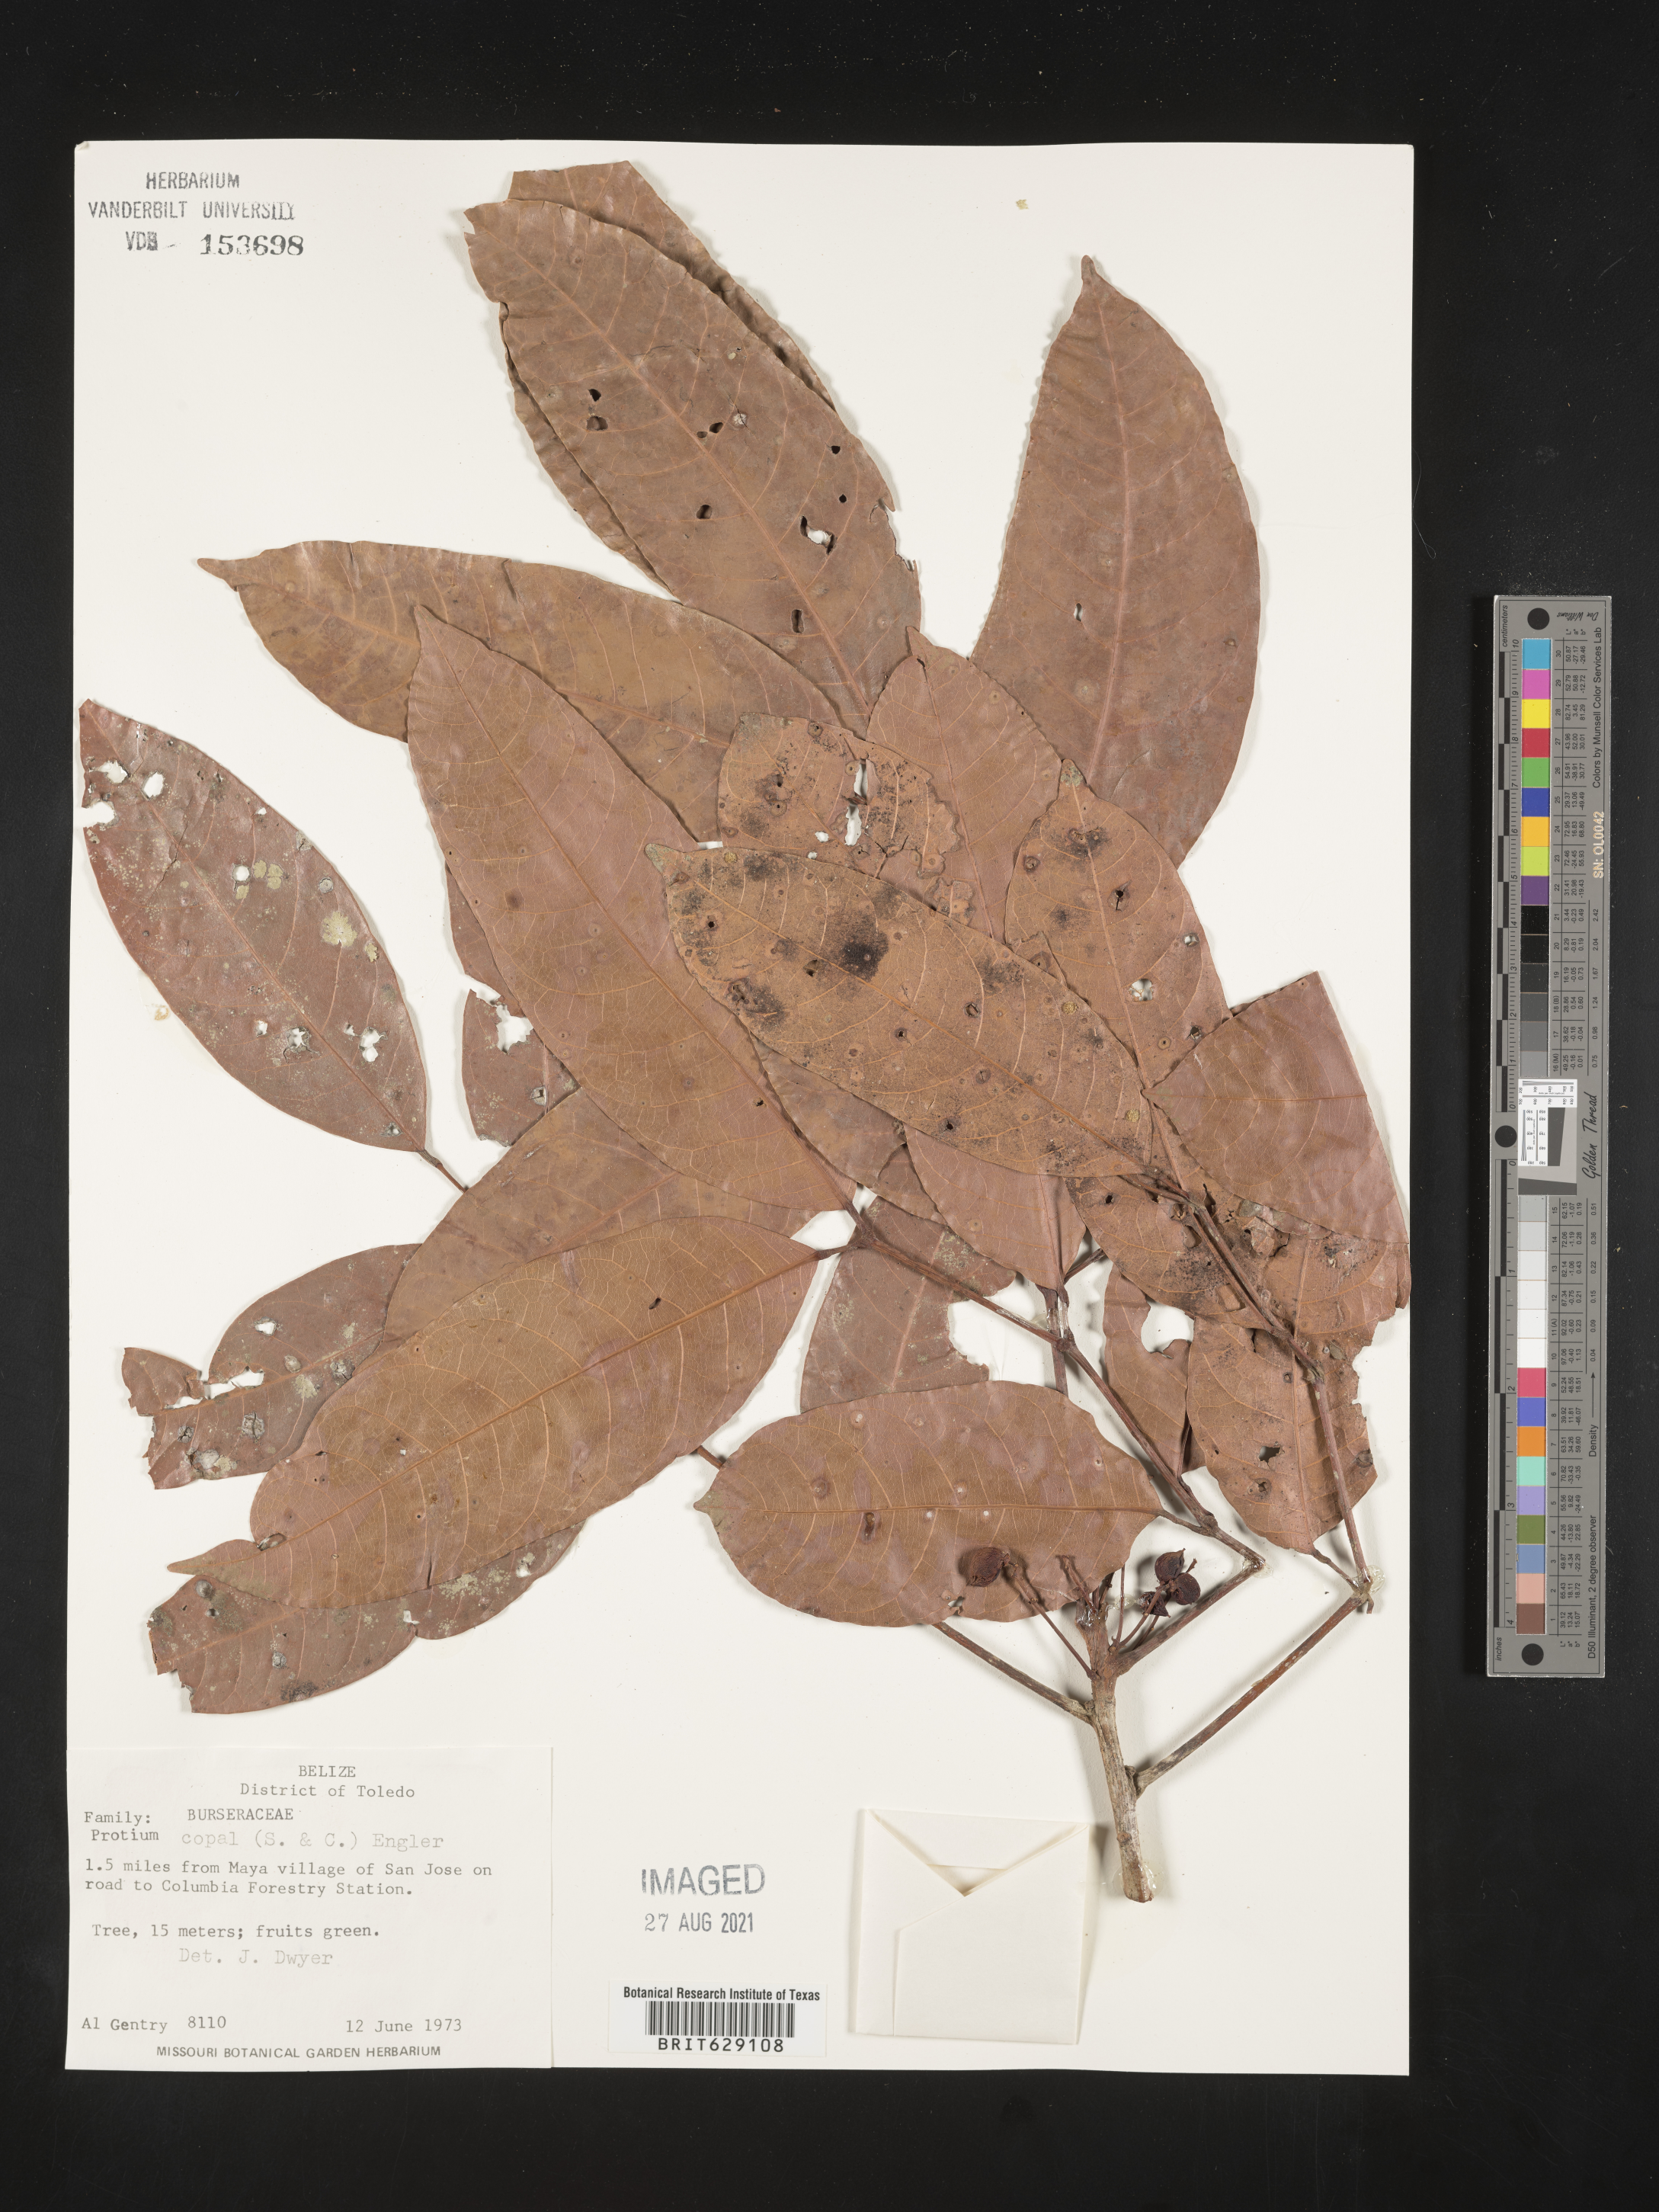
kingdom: Plantae
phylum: Tracheophyta
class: Magnoliopsida
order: Sapindales
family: Burseraceae
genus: Protium
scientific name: Protium copal
